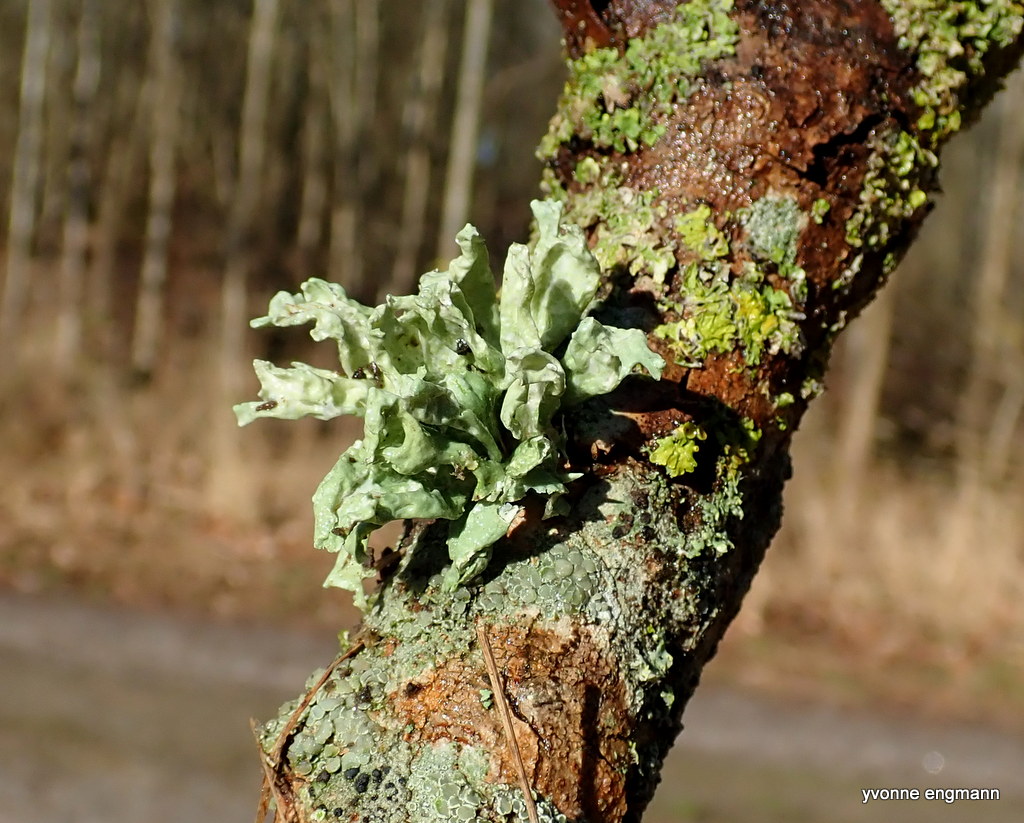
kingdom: Fungi
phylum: Ascomycota
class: Lecanoromycetes
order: Lecanorales
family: Ramalinaceae
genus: Ramalina
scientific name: Ramalina fastigiata
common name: tue-grenlav
